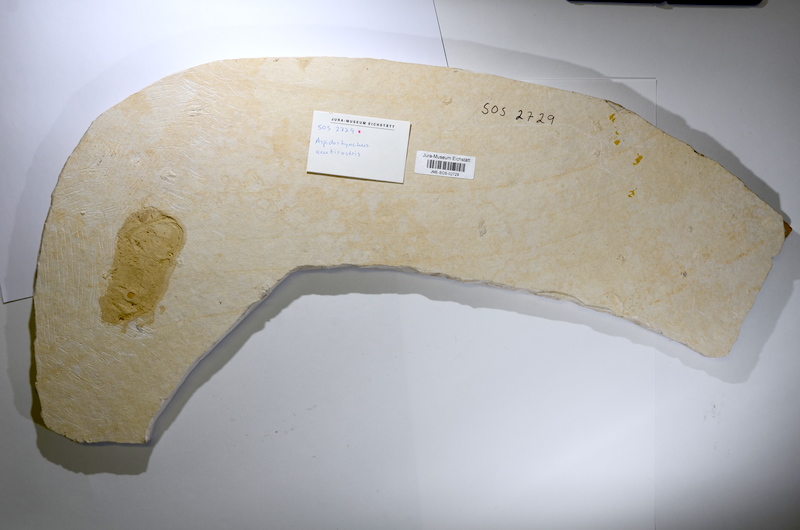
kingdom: Animalia
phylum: Chordata
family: Aspidorhynchidae
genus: Aspidorhynchus
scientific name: Aspidorhynchus acutirostris
